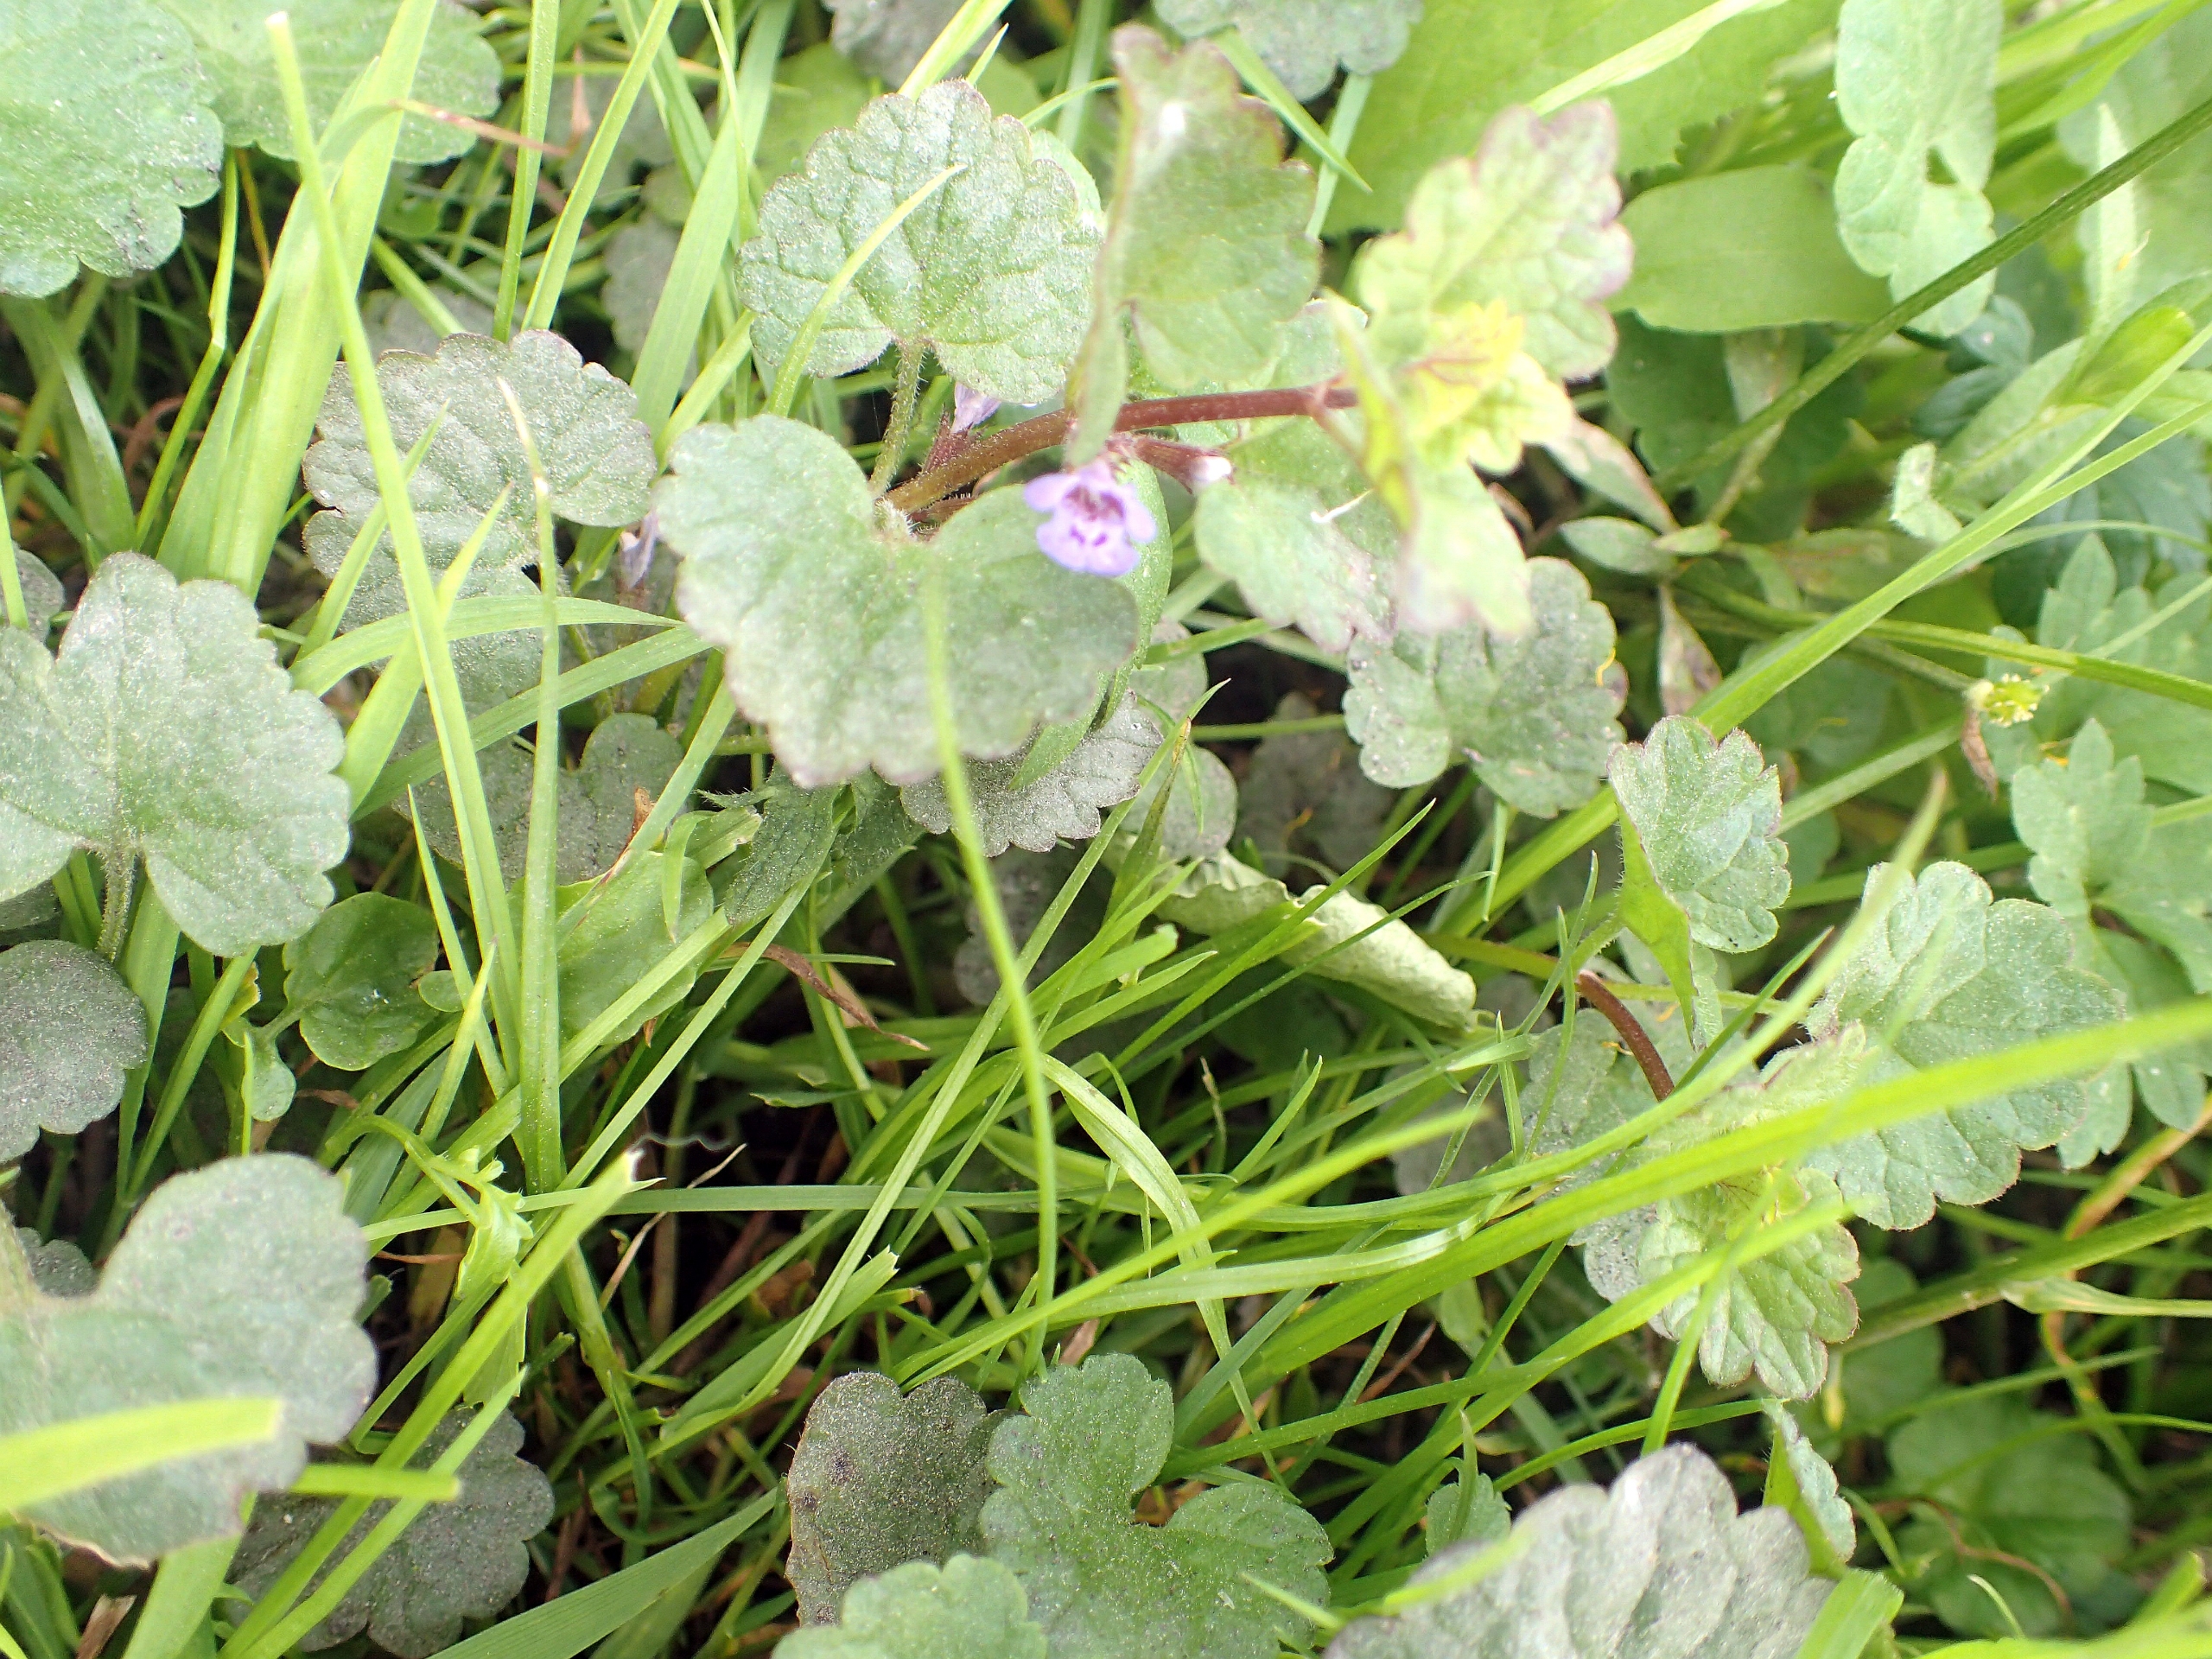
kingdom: Plantae
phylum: Tracheophyta
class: Magnoliopsida
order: Lamiales
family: Lamiaceae
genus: Glechoma
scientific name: Glechoma hederacea
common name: Korsknap
